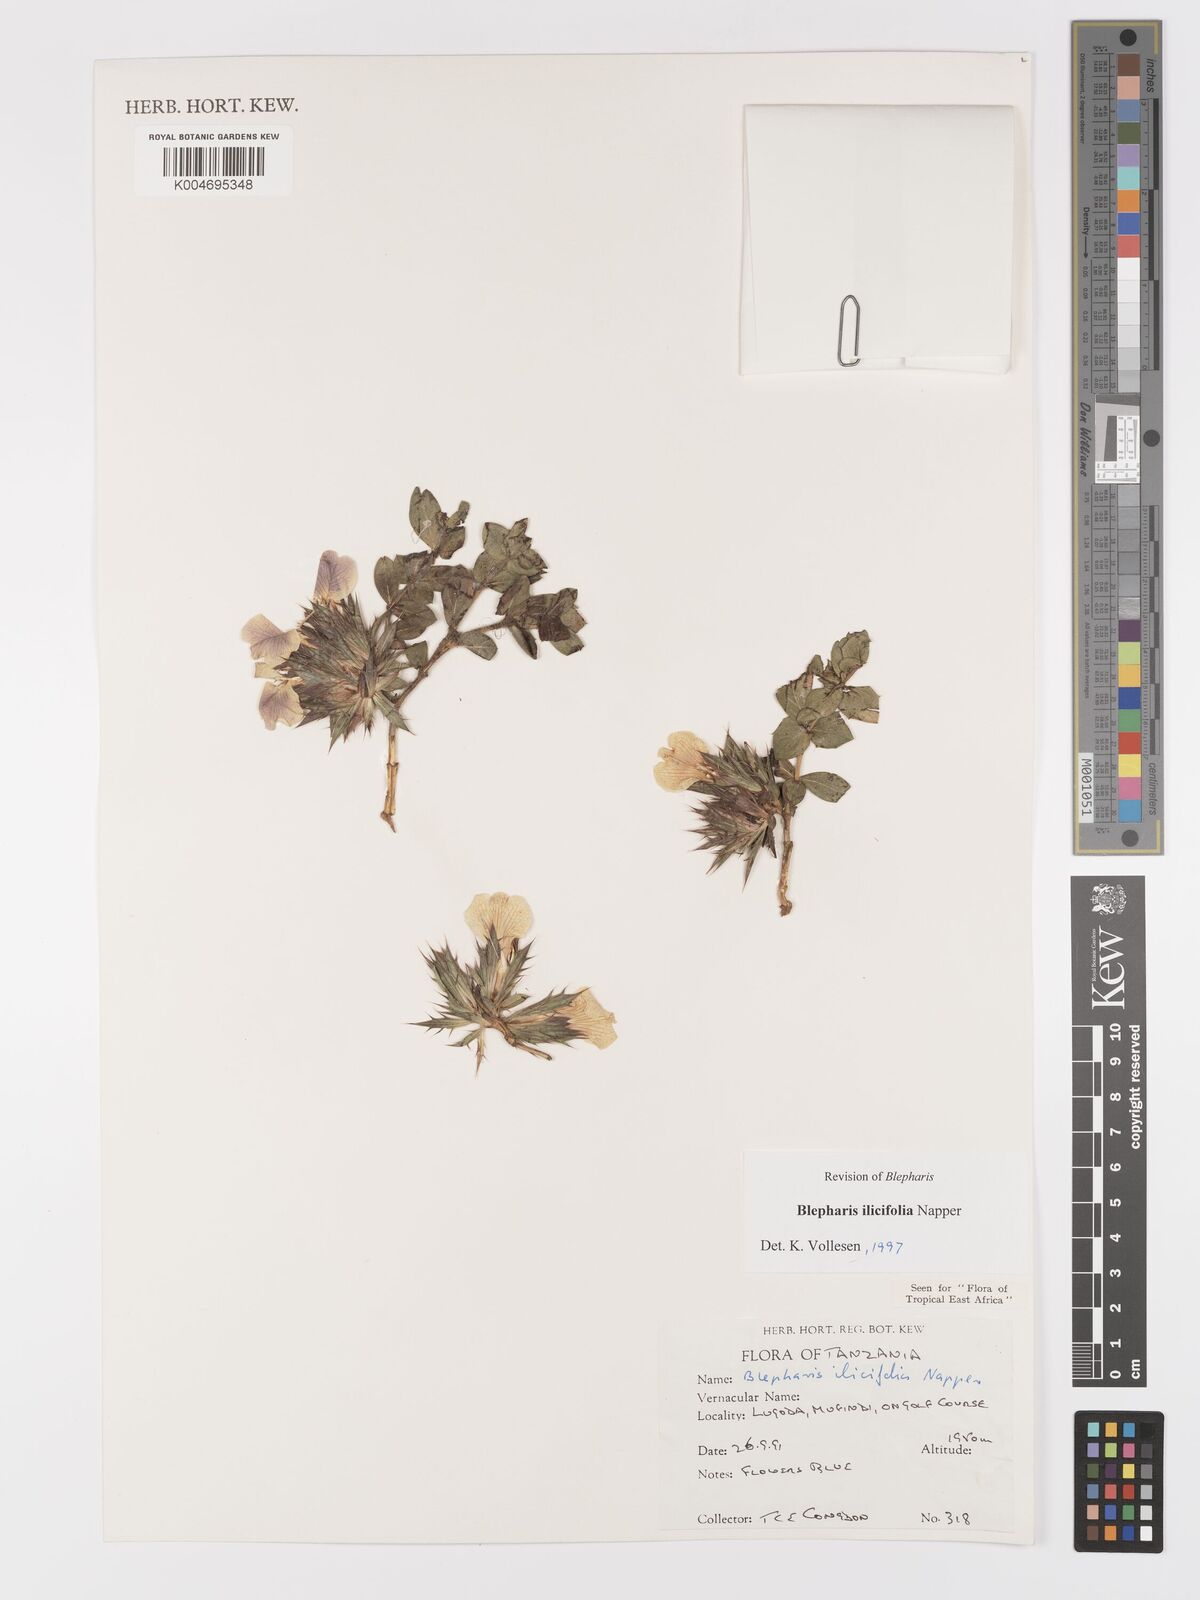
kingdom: Plantae
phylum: Tracheophyta
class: Magnoliopsida
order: Lamiales
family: Acanthaceae
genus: Blepharis
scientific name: Blepharis ilicifolia
